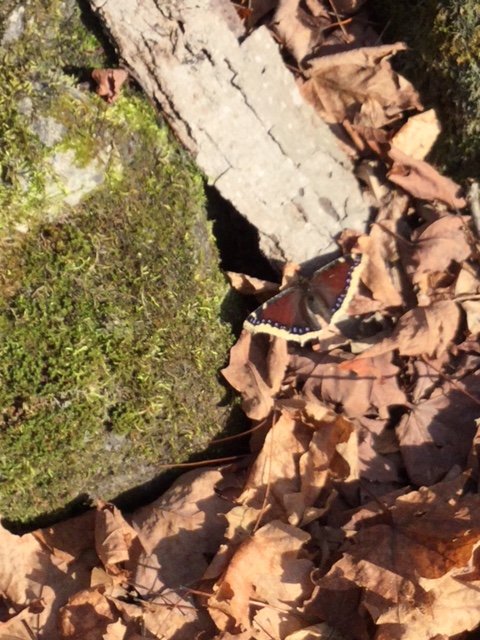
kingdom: Animalia
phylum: Arthropoda
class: Insecta
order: Lepidoptera
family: Nymphalidae
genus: Nymphalis
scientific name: Nymphalis antiopa
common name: Mourning Cloak
